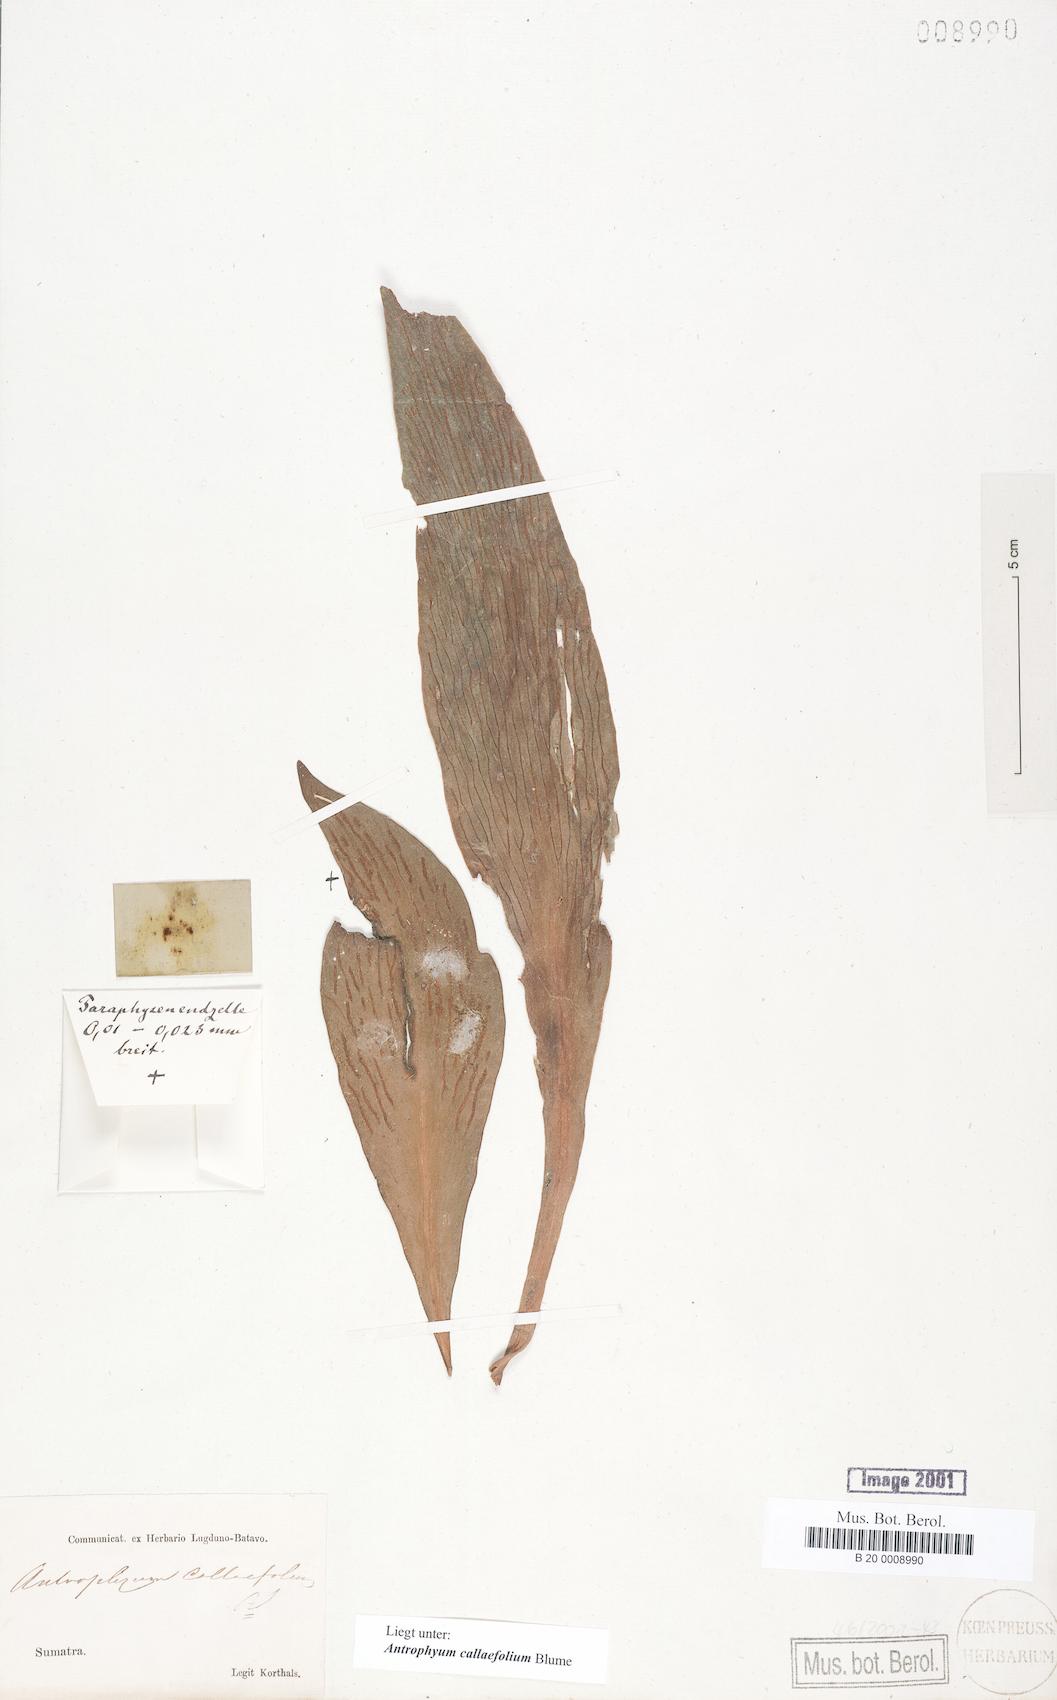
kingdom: Plantae
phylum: Tracheophyta
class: Polypodiopsida
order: Polypodiales
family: Pteridaceae
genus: Antrophyum
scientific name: Antrophyum callifolium
